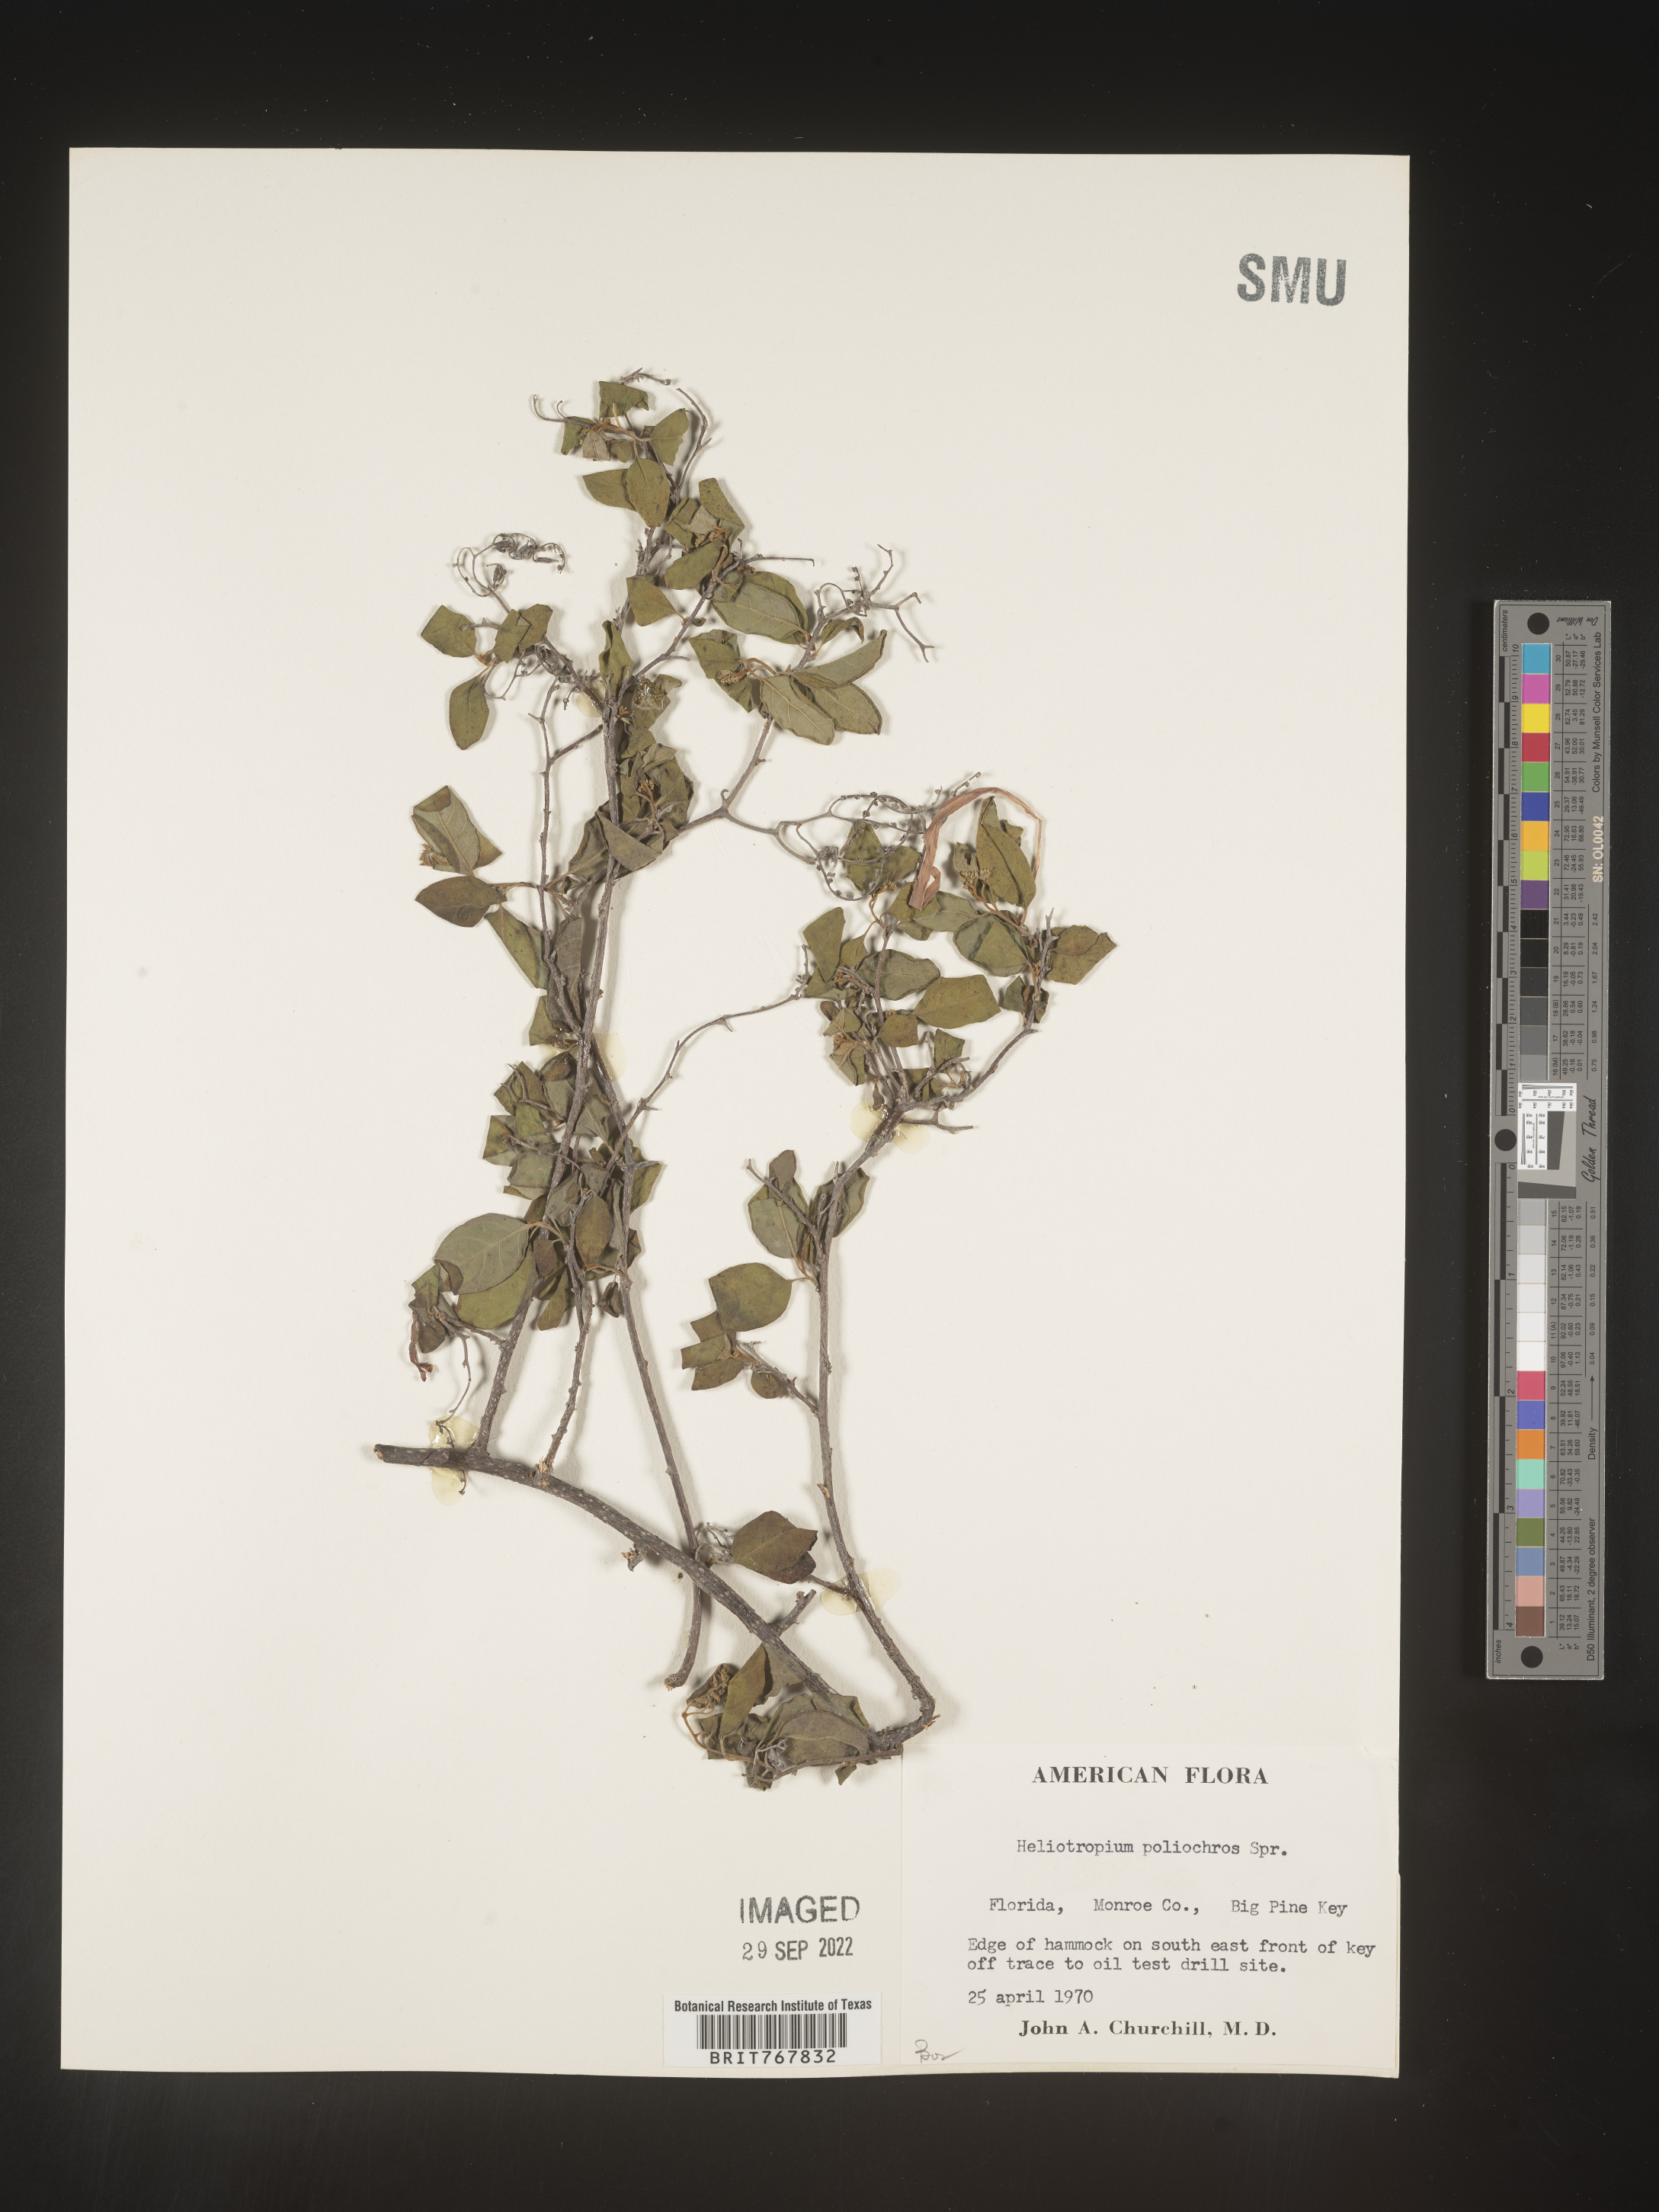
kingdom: Plantae
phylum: Tracheophyta
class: Magnoliopsida
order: Boraginales
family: Heliotropiaceae
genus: Heliotropium
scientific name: Heliotropium
